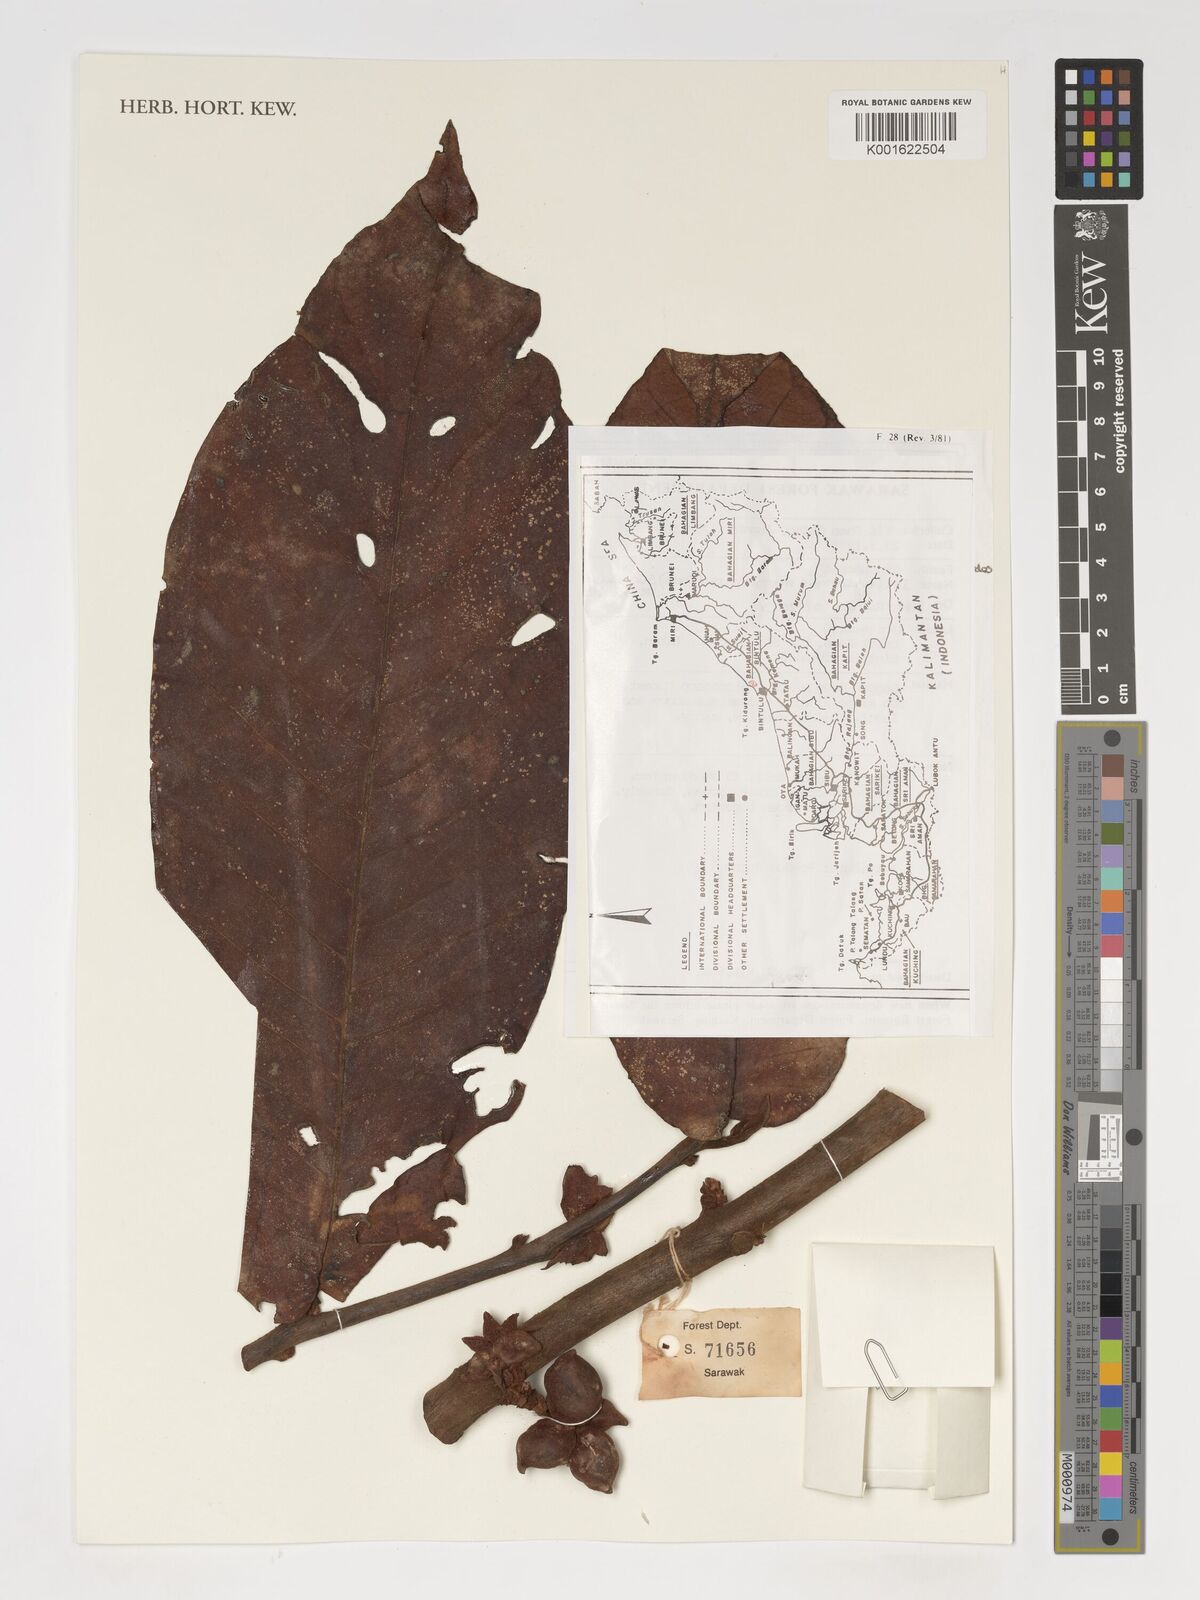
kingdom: Plantae
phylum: Tracheophyta
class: Magnoliopsida
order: Magnoliales
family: Annonaceae
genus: Drepananthus
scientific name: Drepananthus magnificus
